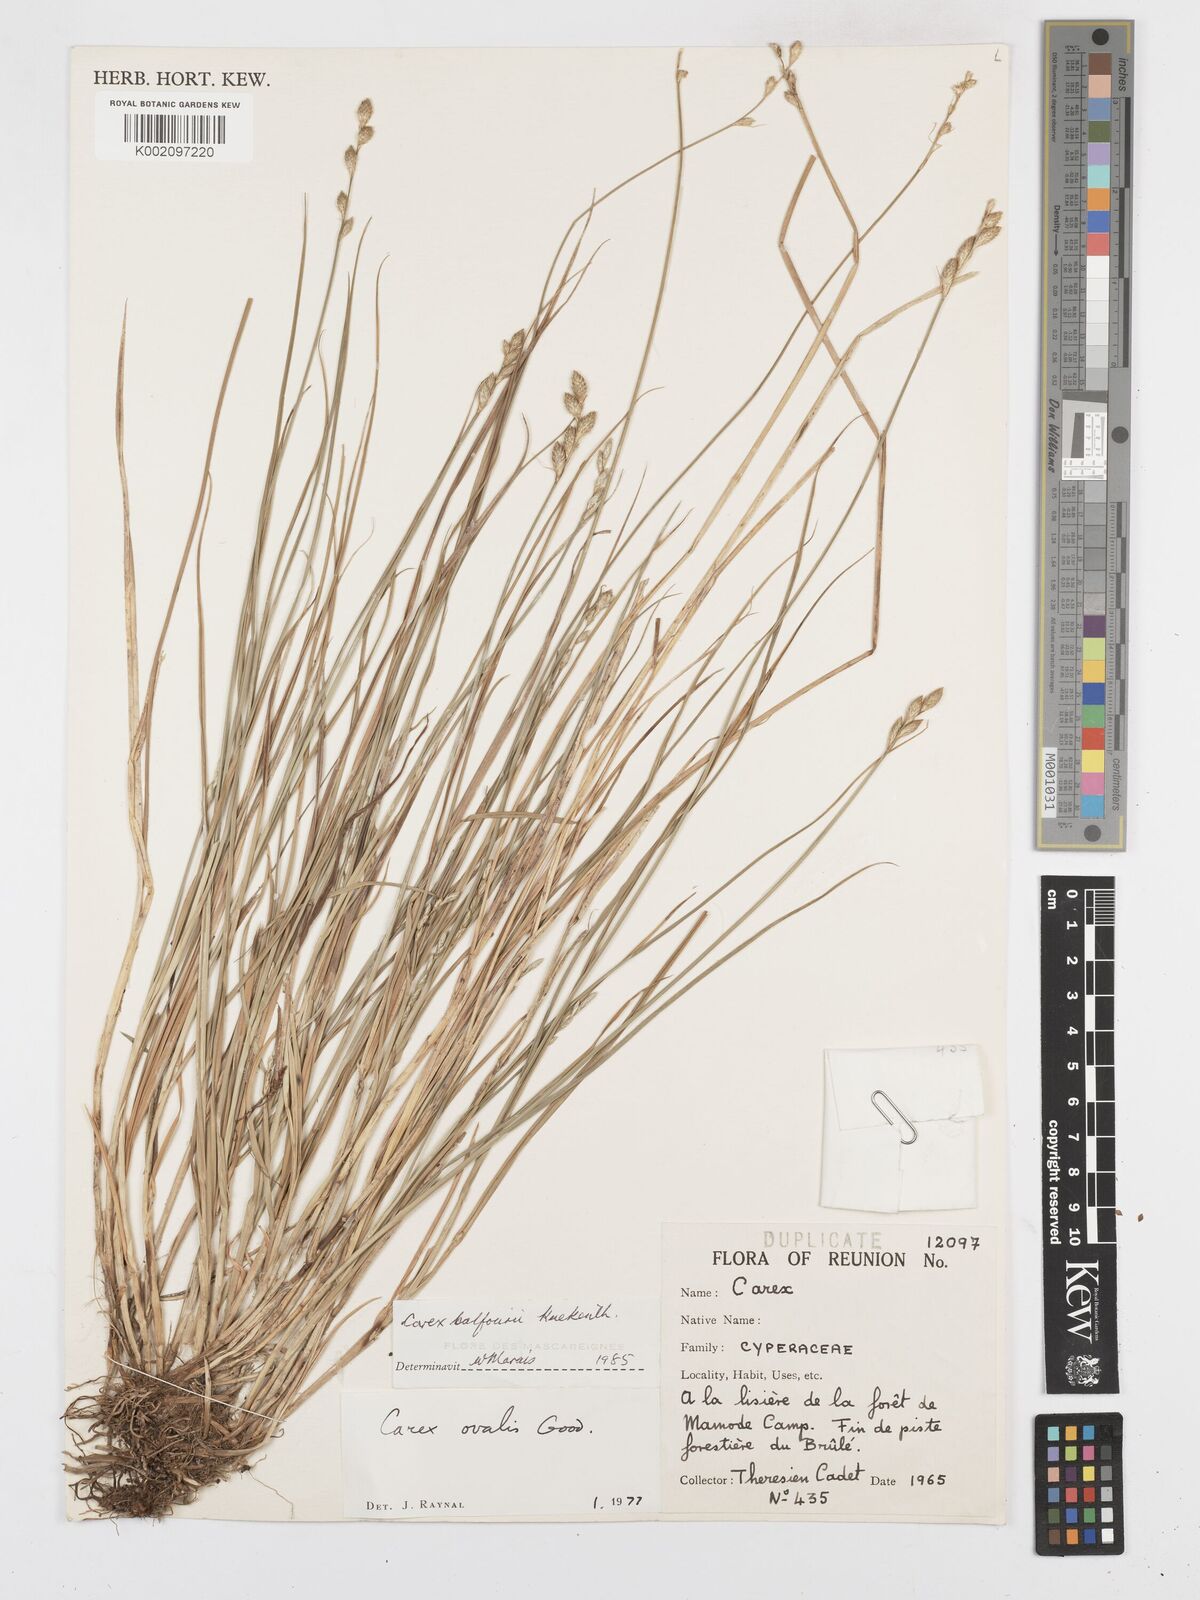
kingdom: Plantae
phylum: Tracheophyta
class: Liliopsida
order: Poales
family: Cyperaceae
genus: Carex
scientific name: Carex balfourii
